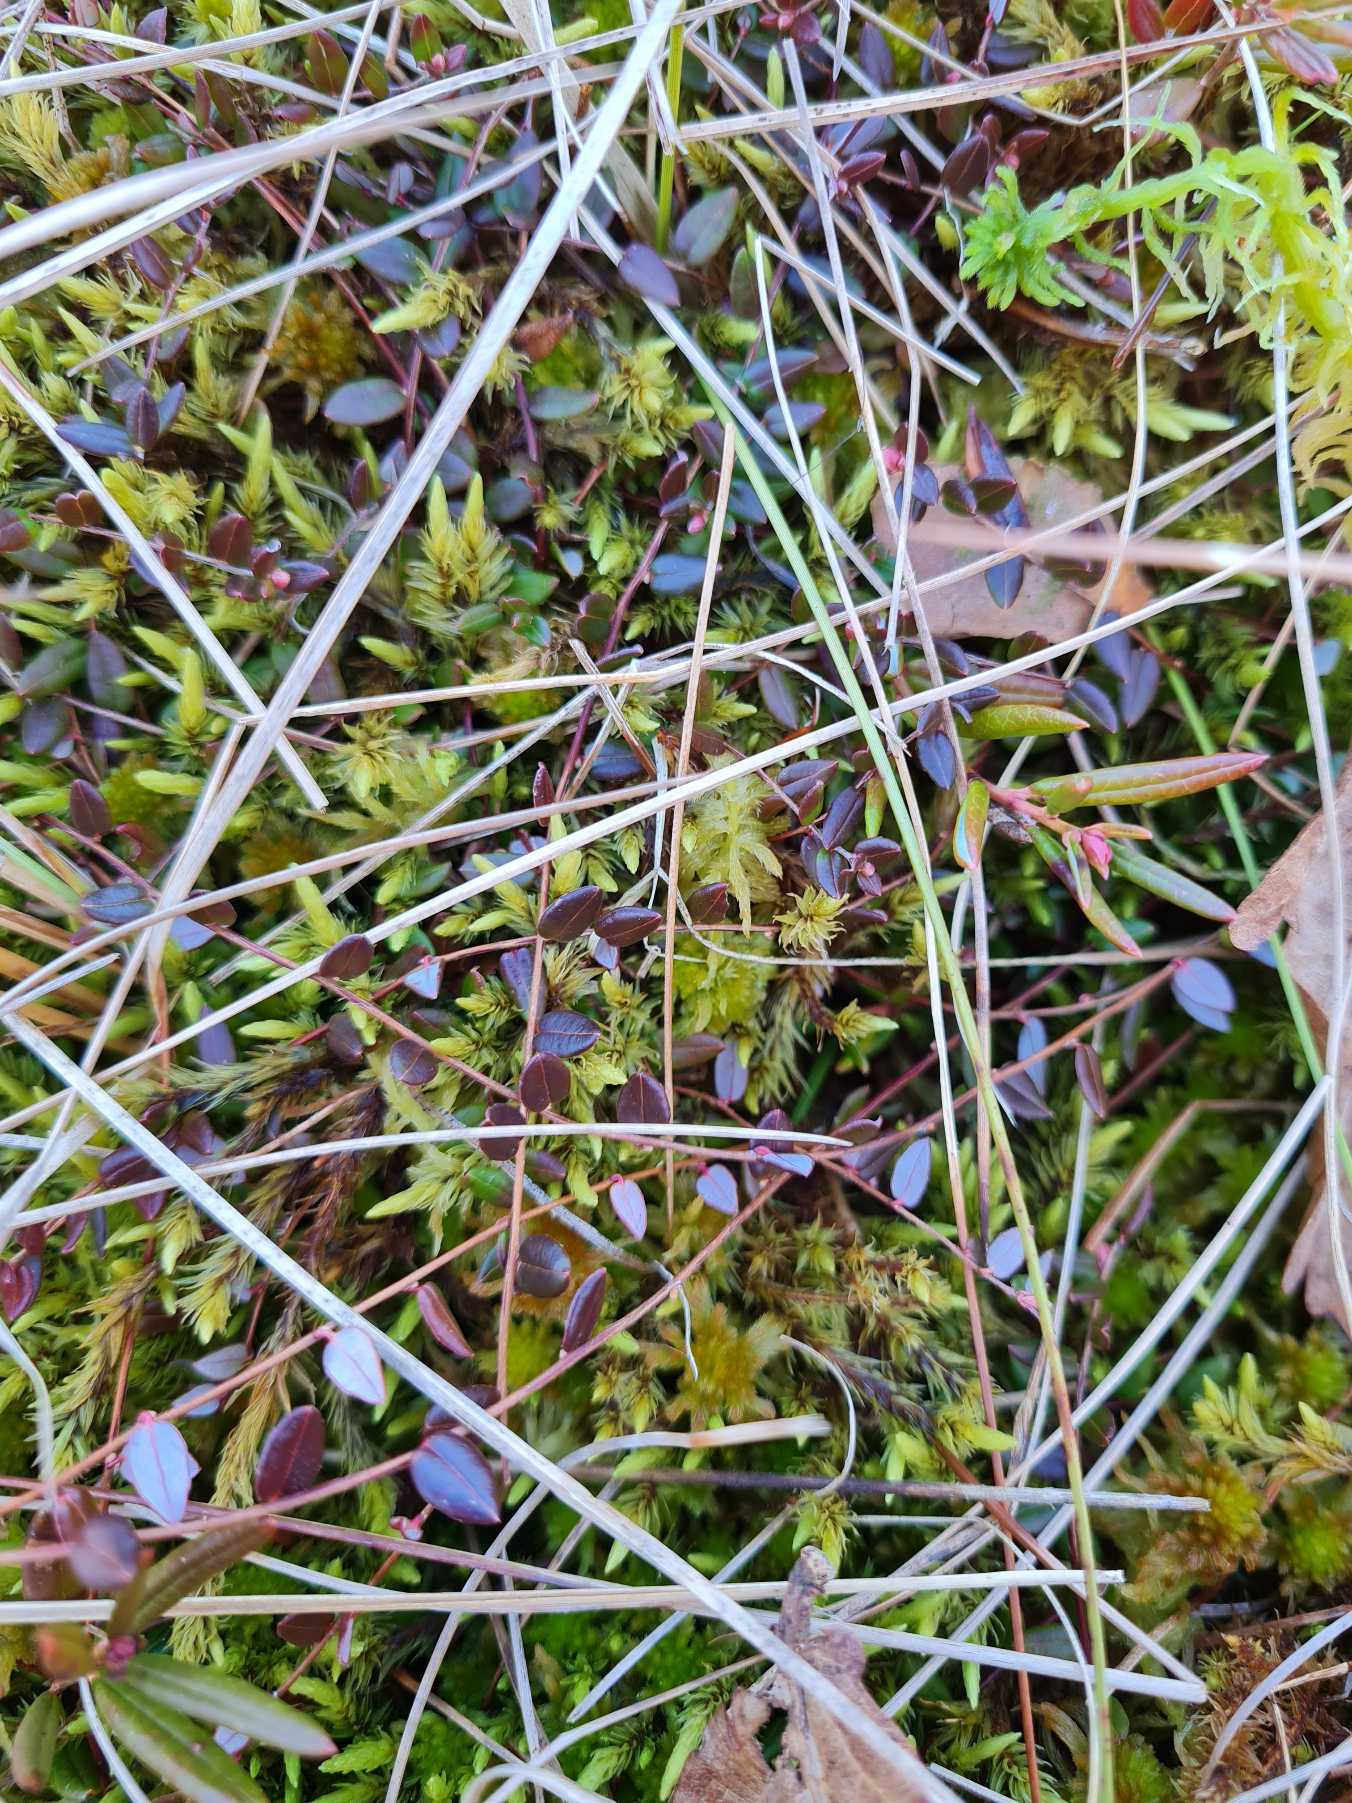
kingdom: Plantae
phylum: Tracheophyta
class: Magnoliopsida
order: Ericales
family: Ericaceae
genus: Vaccinium
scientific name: Vaccinium oxycoccos
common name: Tranebær
